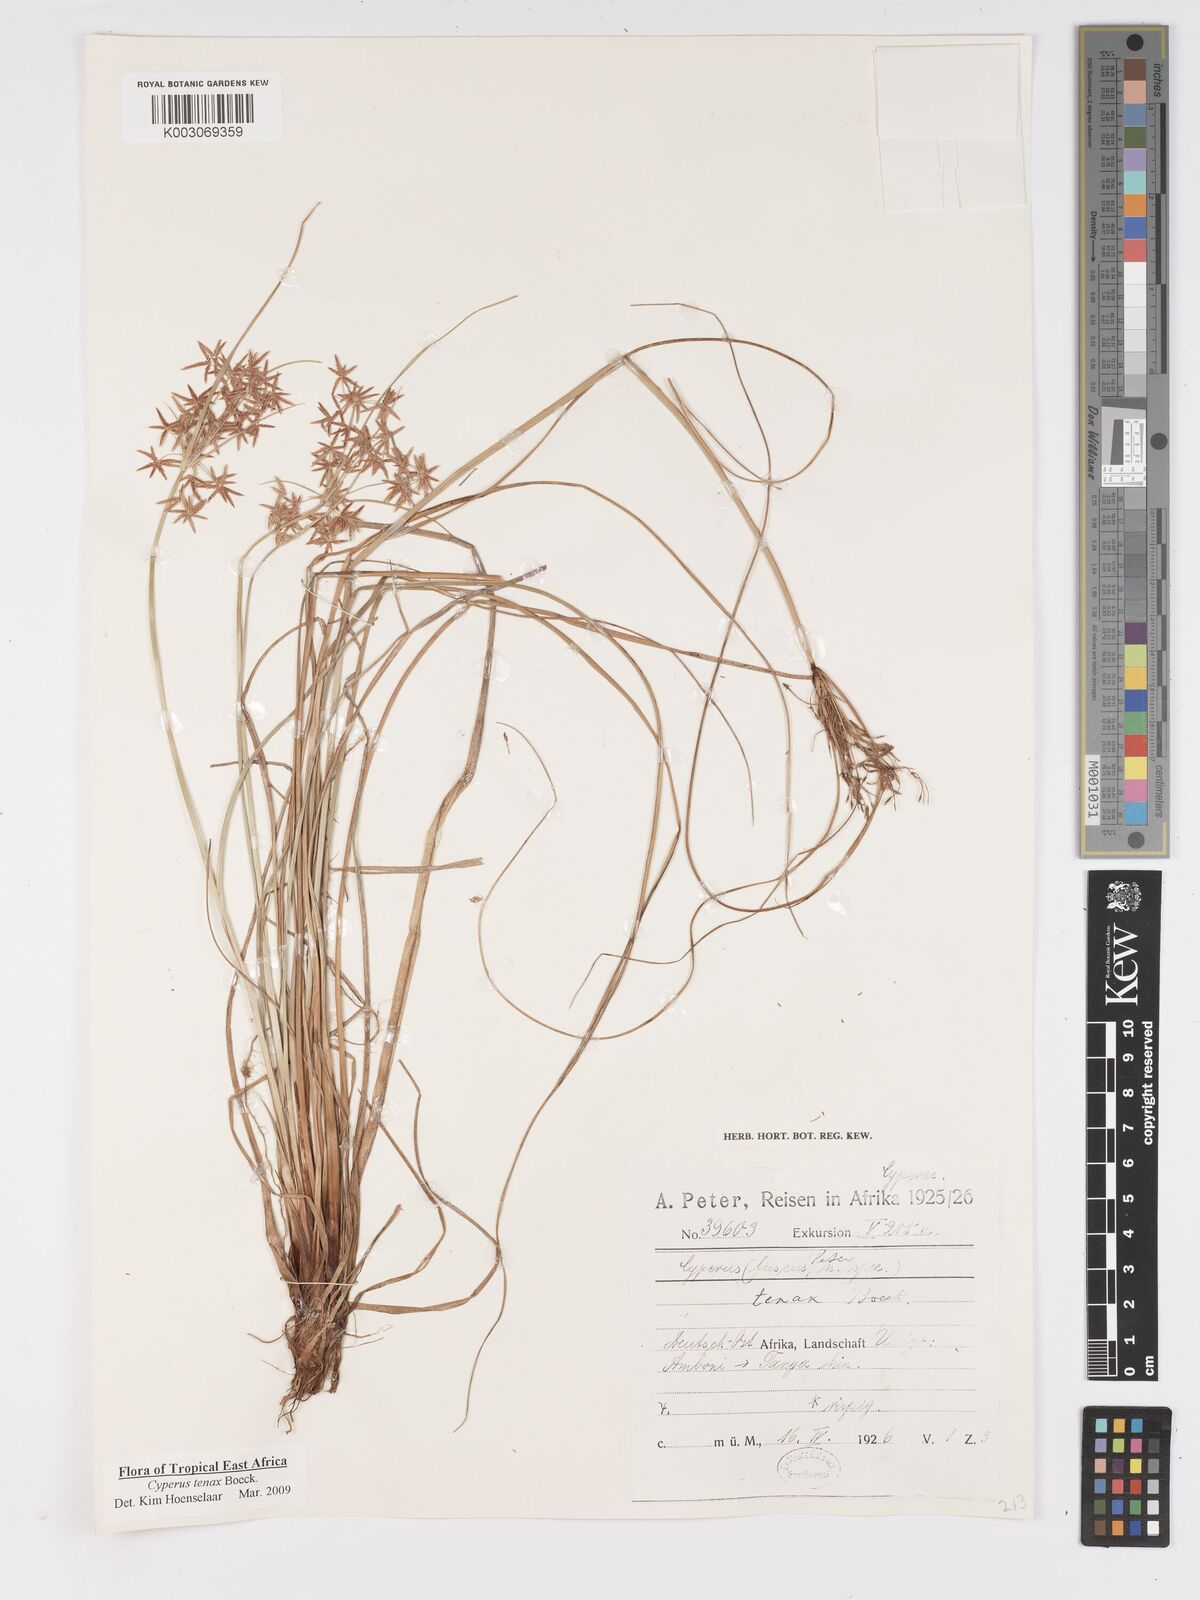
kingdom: Plantae
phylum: Tracheophyta
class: Liliopsida
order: Poales
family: Cyperaceae
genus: Cyperus
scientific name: Cyperus tenax
